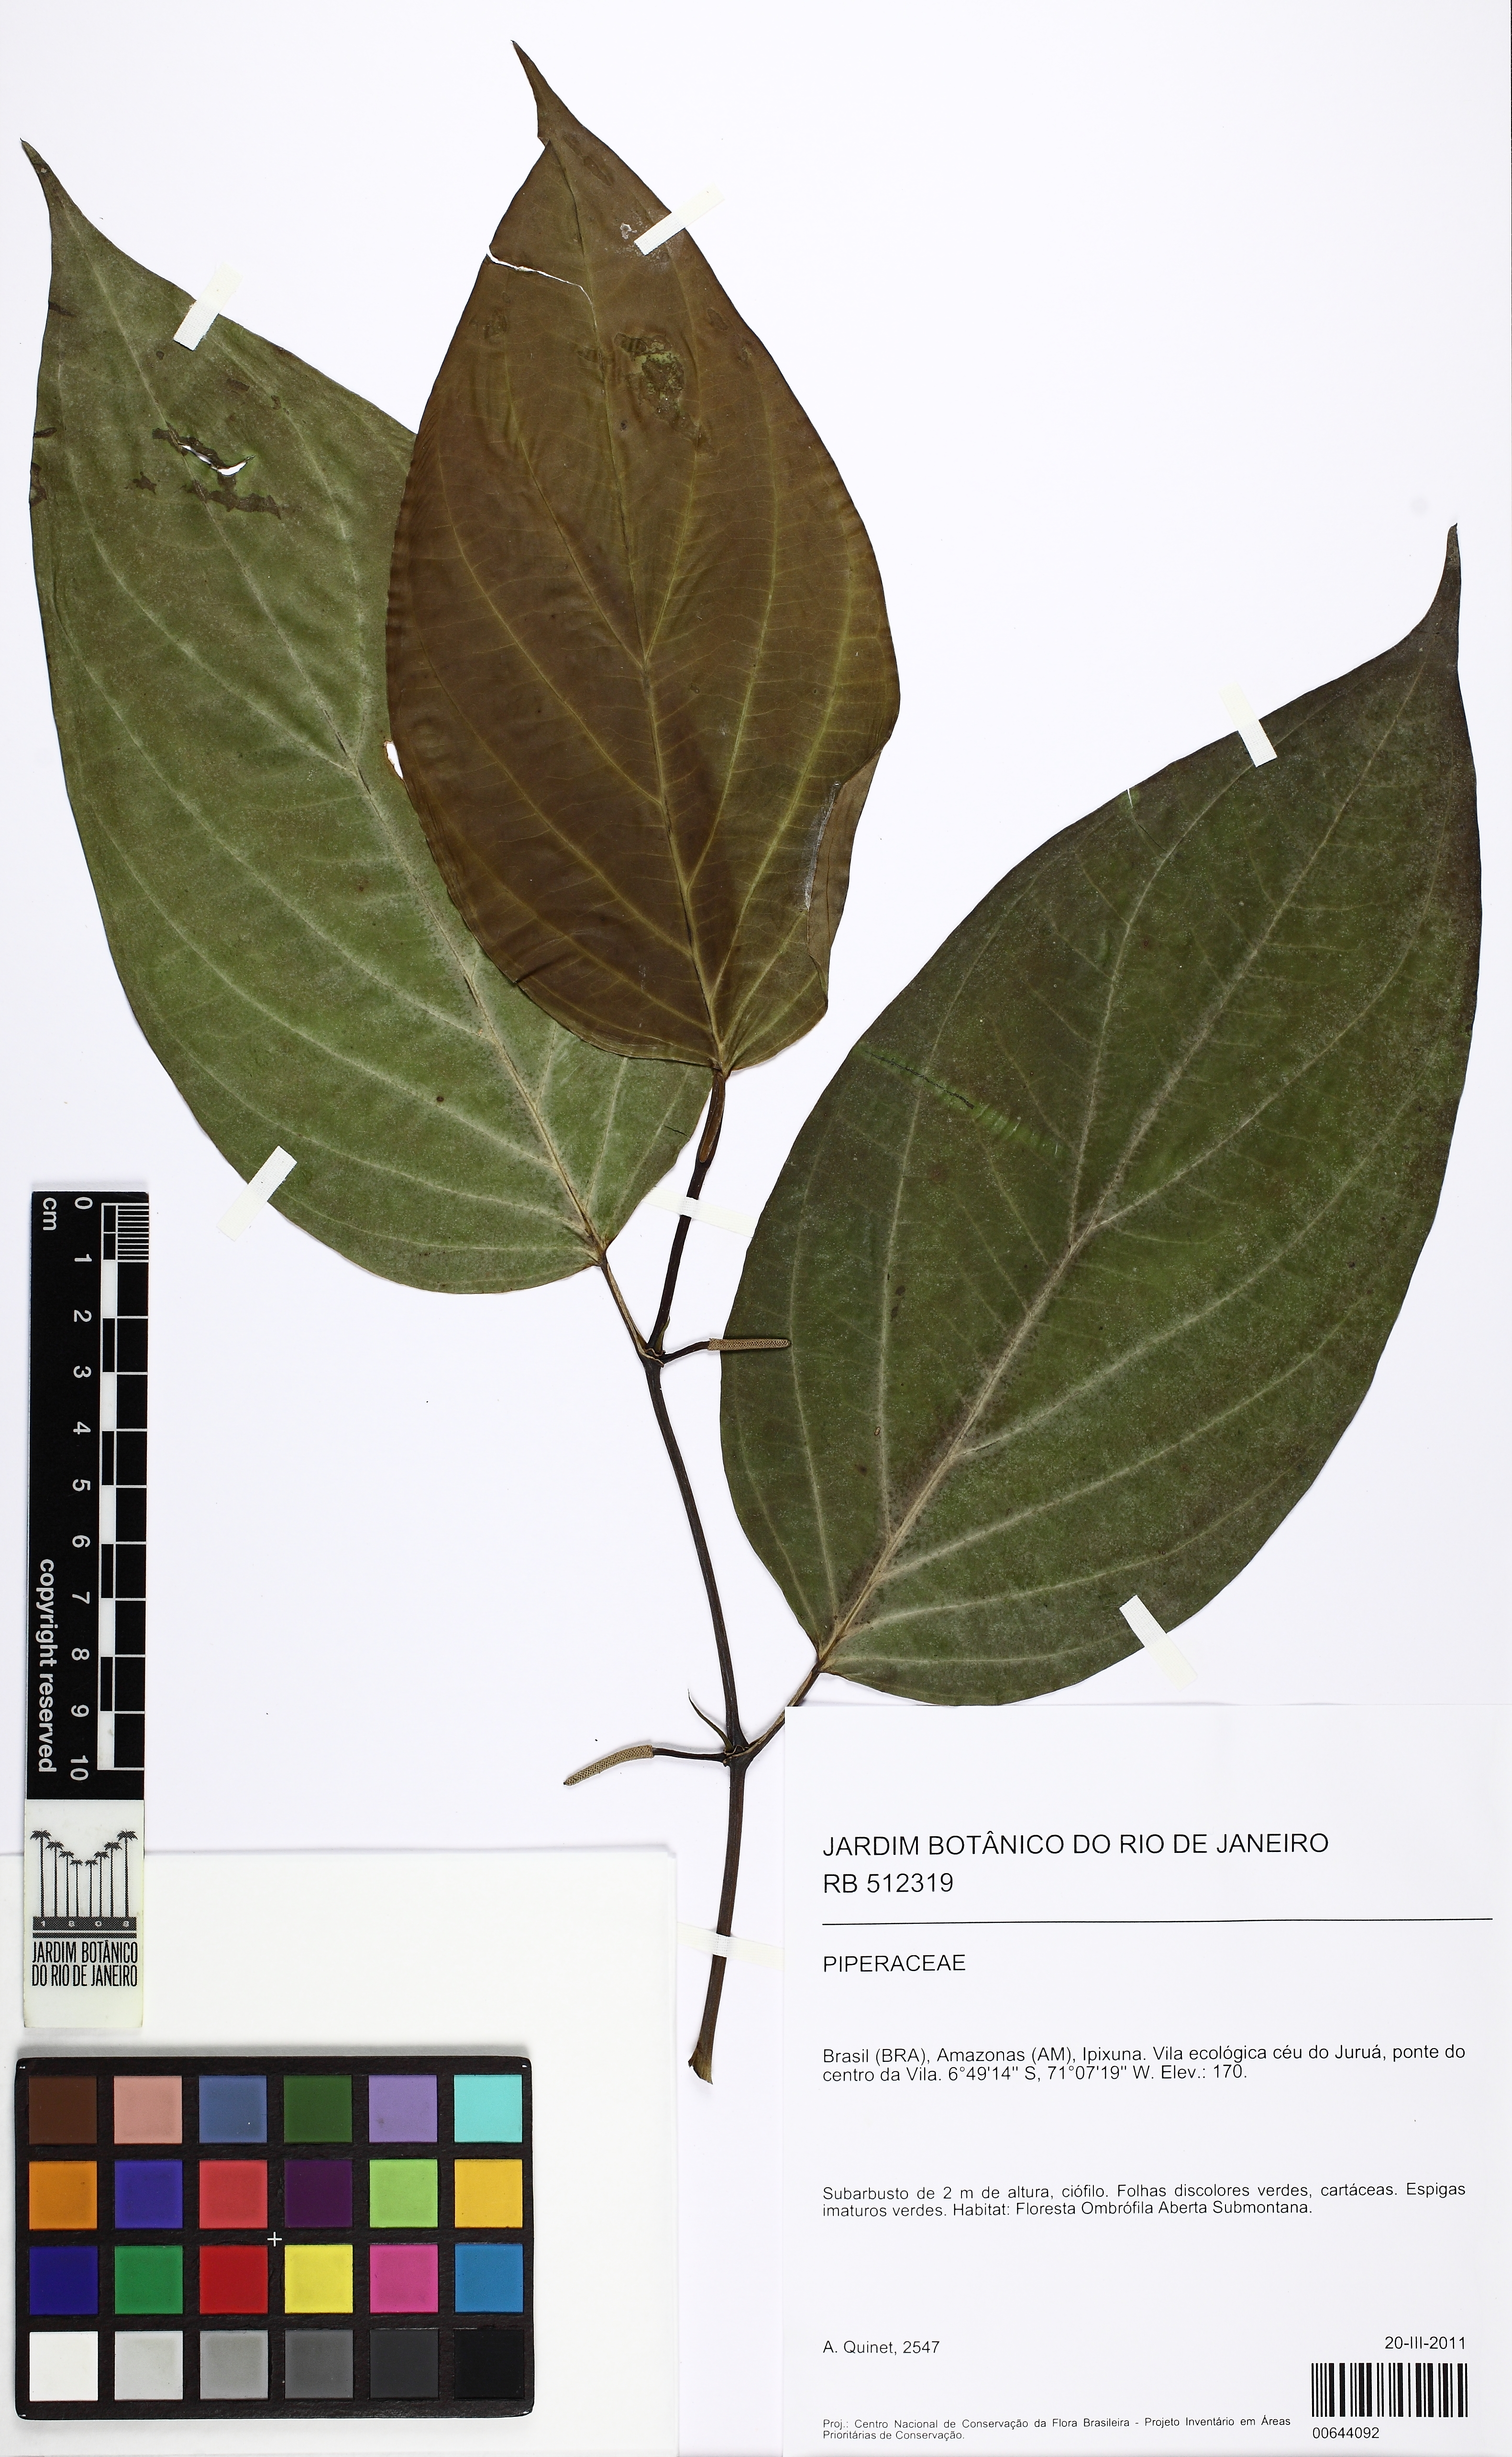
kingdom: Plantae
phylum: Tracheophyta
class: Magnoliopsida
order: Piperales
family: Piperaceae
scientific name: Piperaceae
